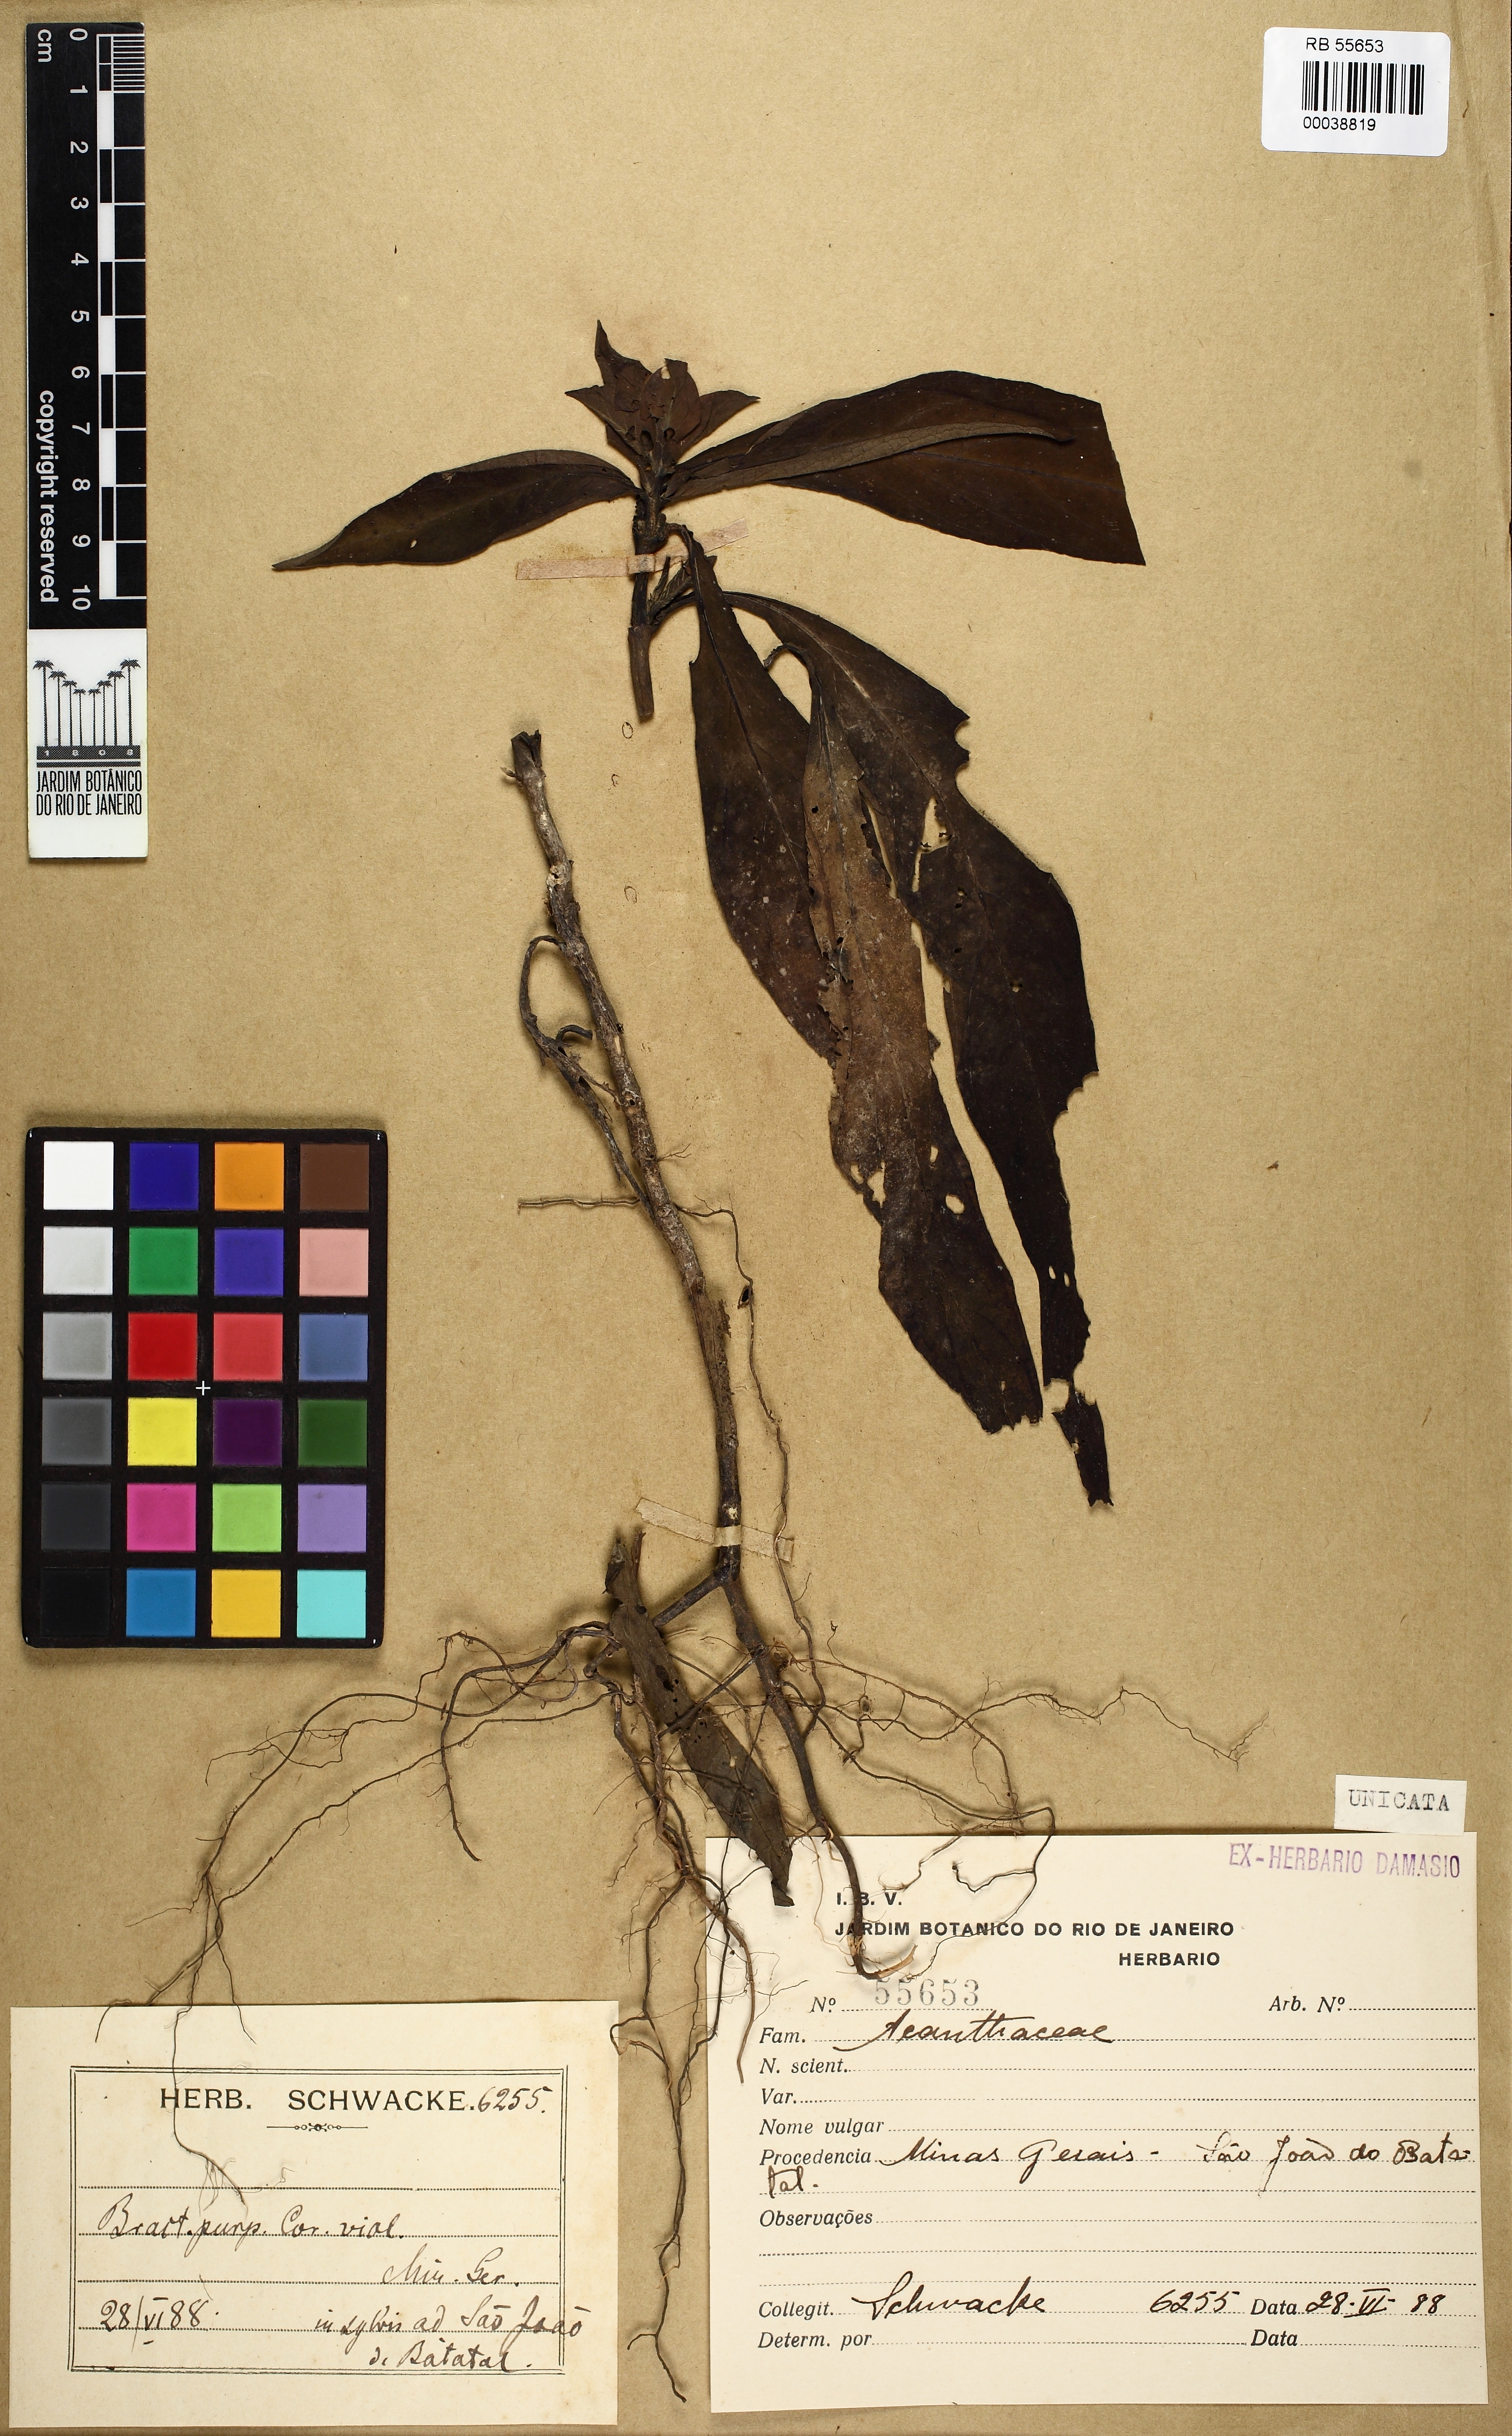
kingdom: Plantae
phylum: Tracheophyta
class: Magnoliopsida
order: Lamiales
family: Acanthaceae
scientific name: Acanthaceae
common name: Acanthaceae
